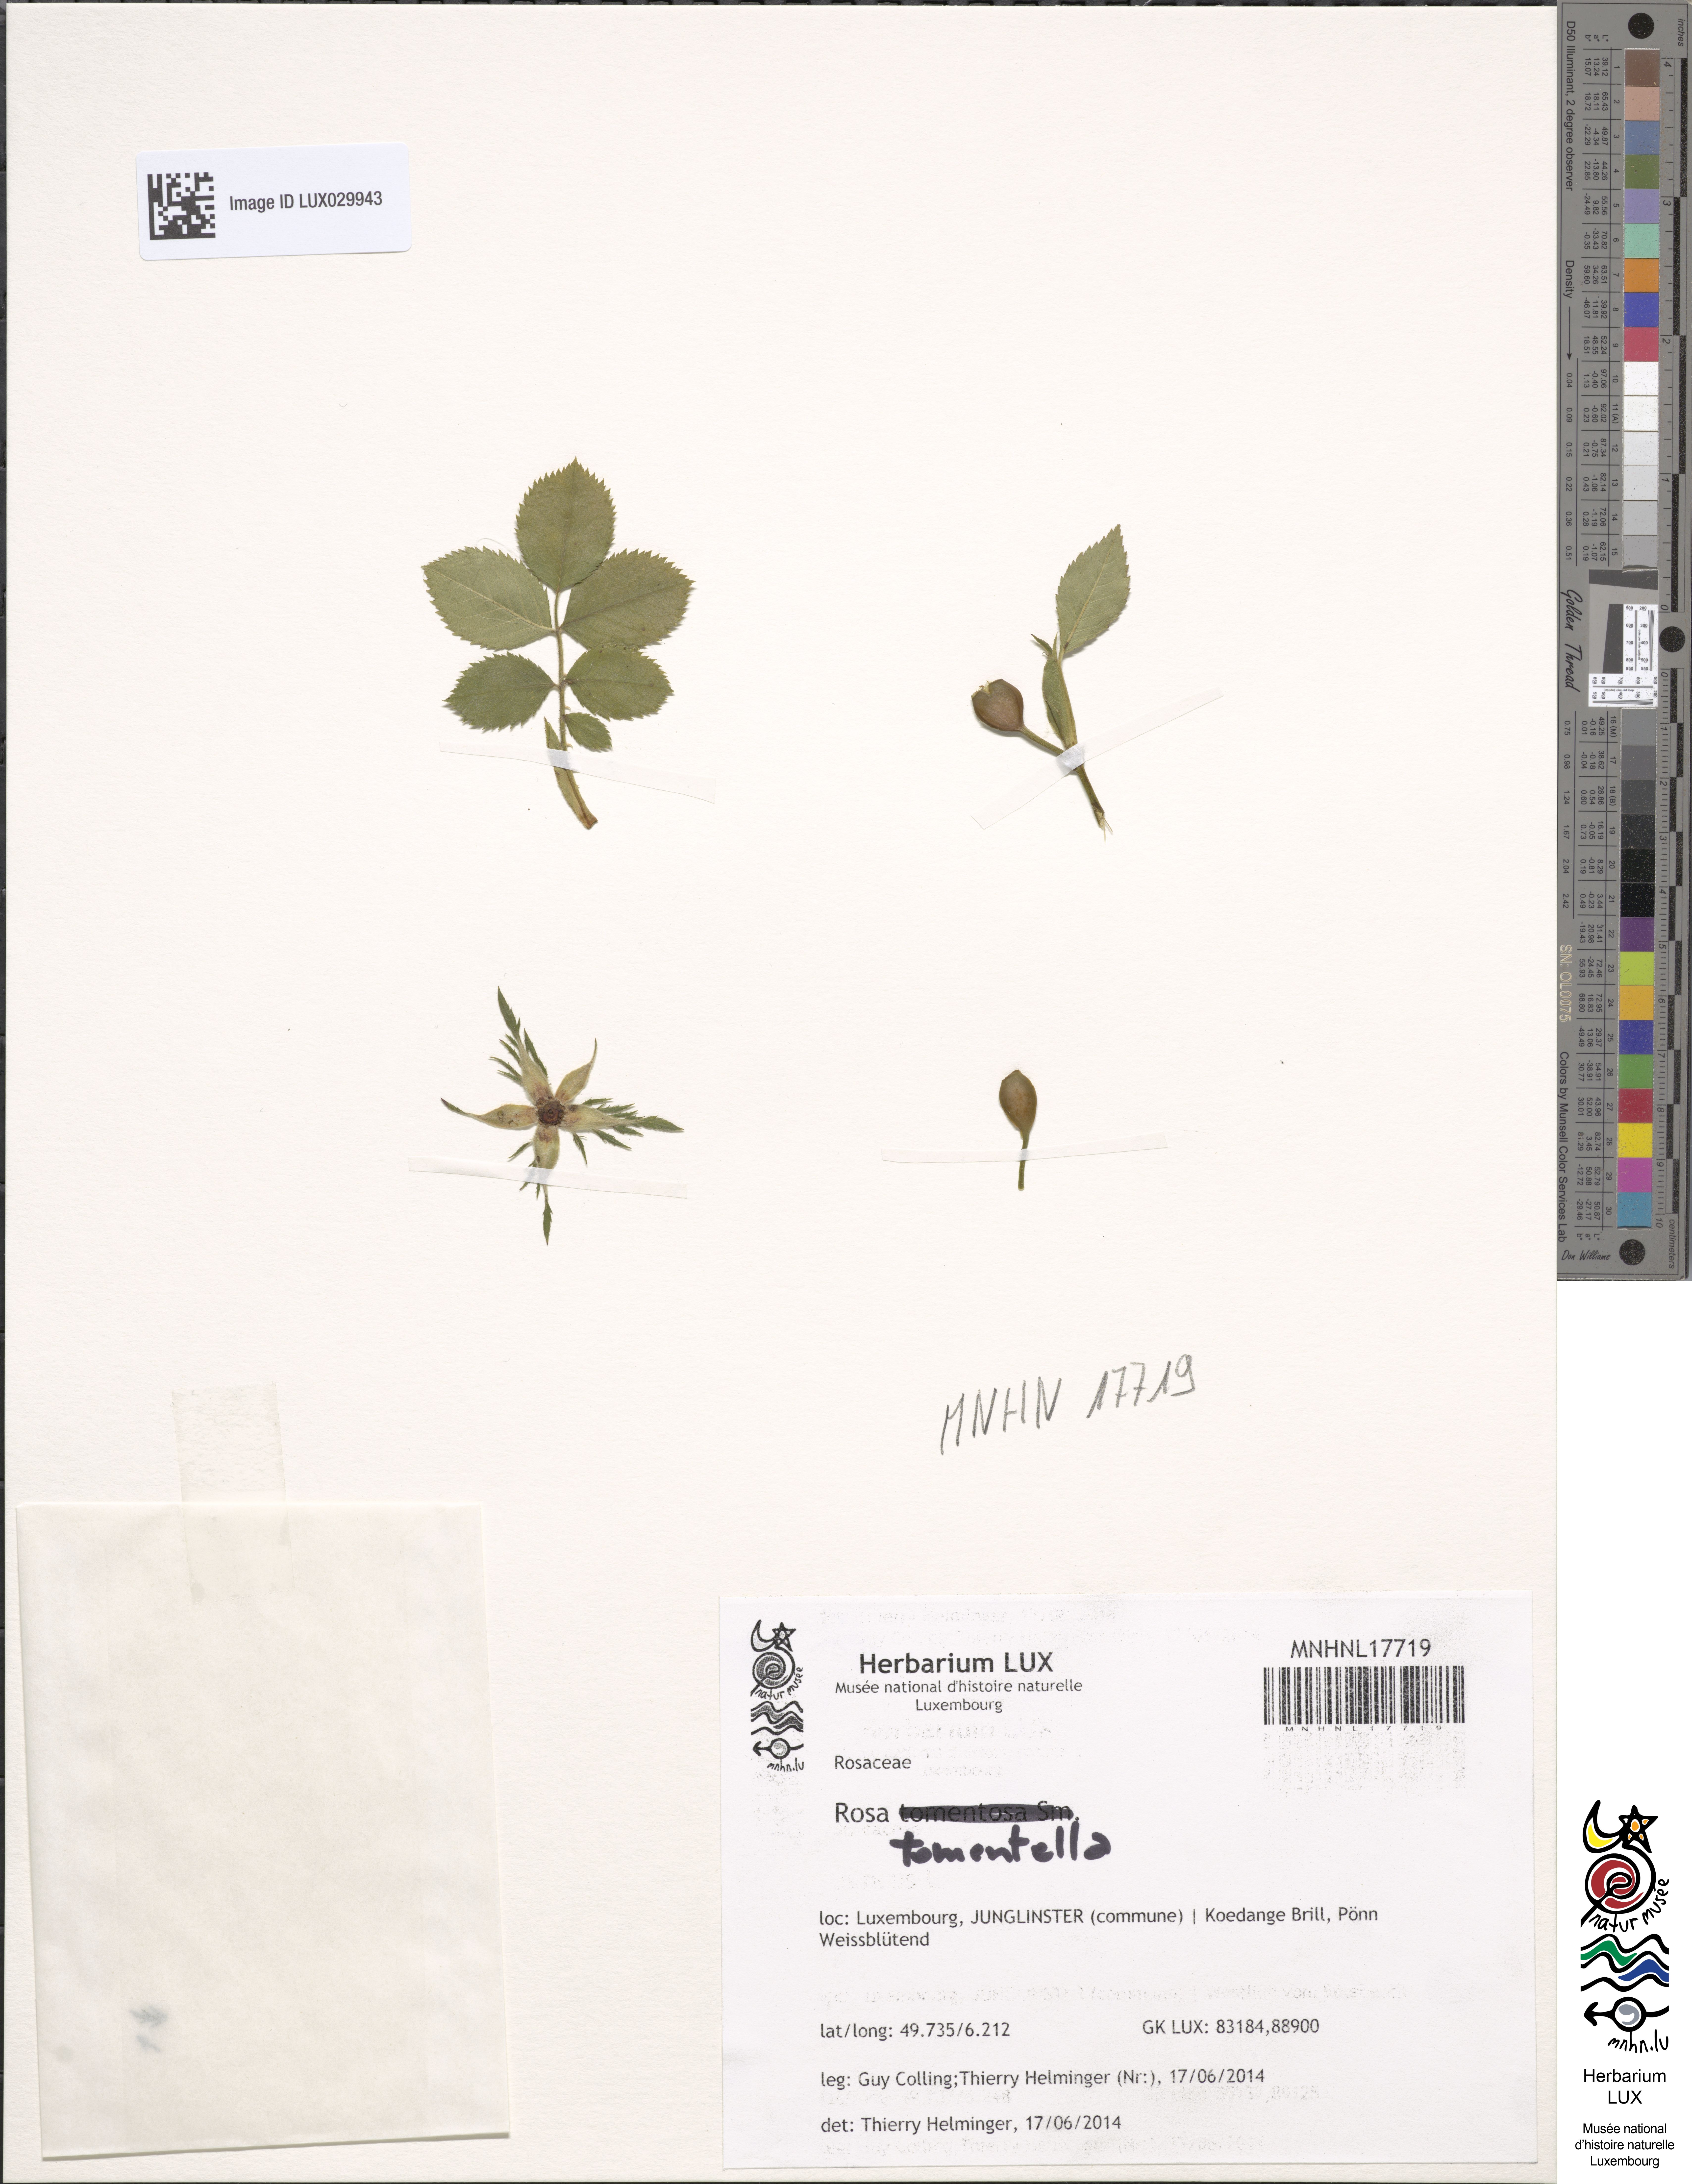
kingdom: Plantae
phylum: Tracheophyta
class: Magnoliopsida
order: Rosales
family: Rosaceae
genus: Rosa
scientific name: Rosa balsamica
